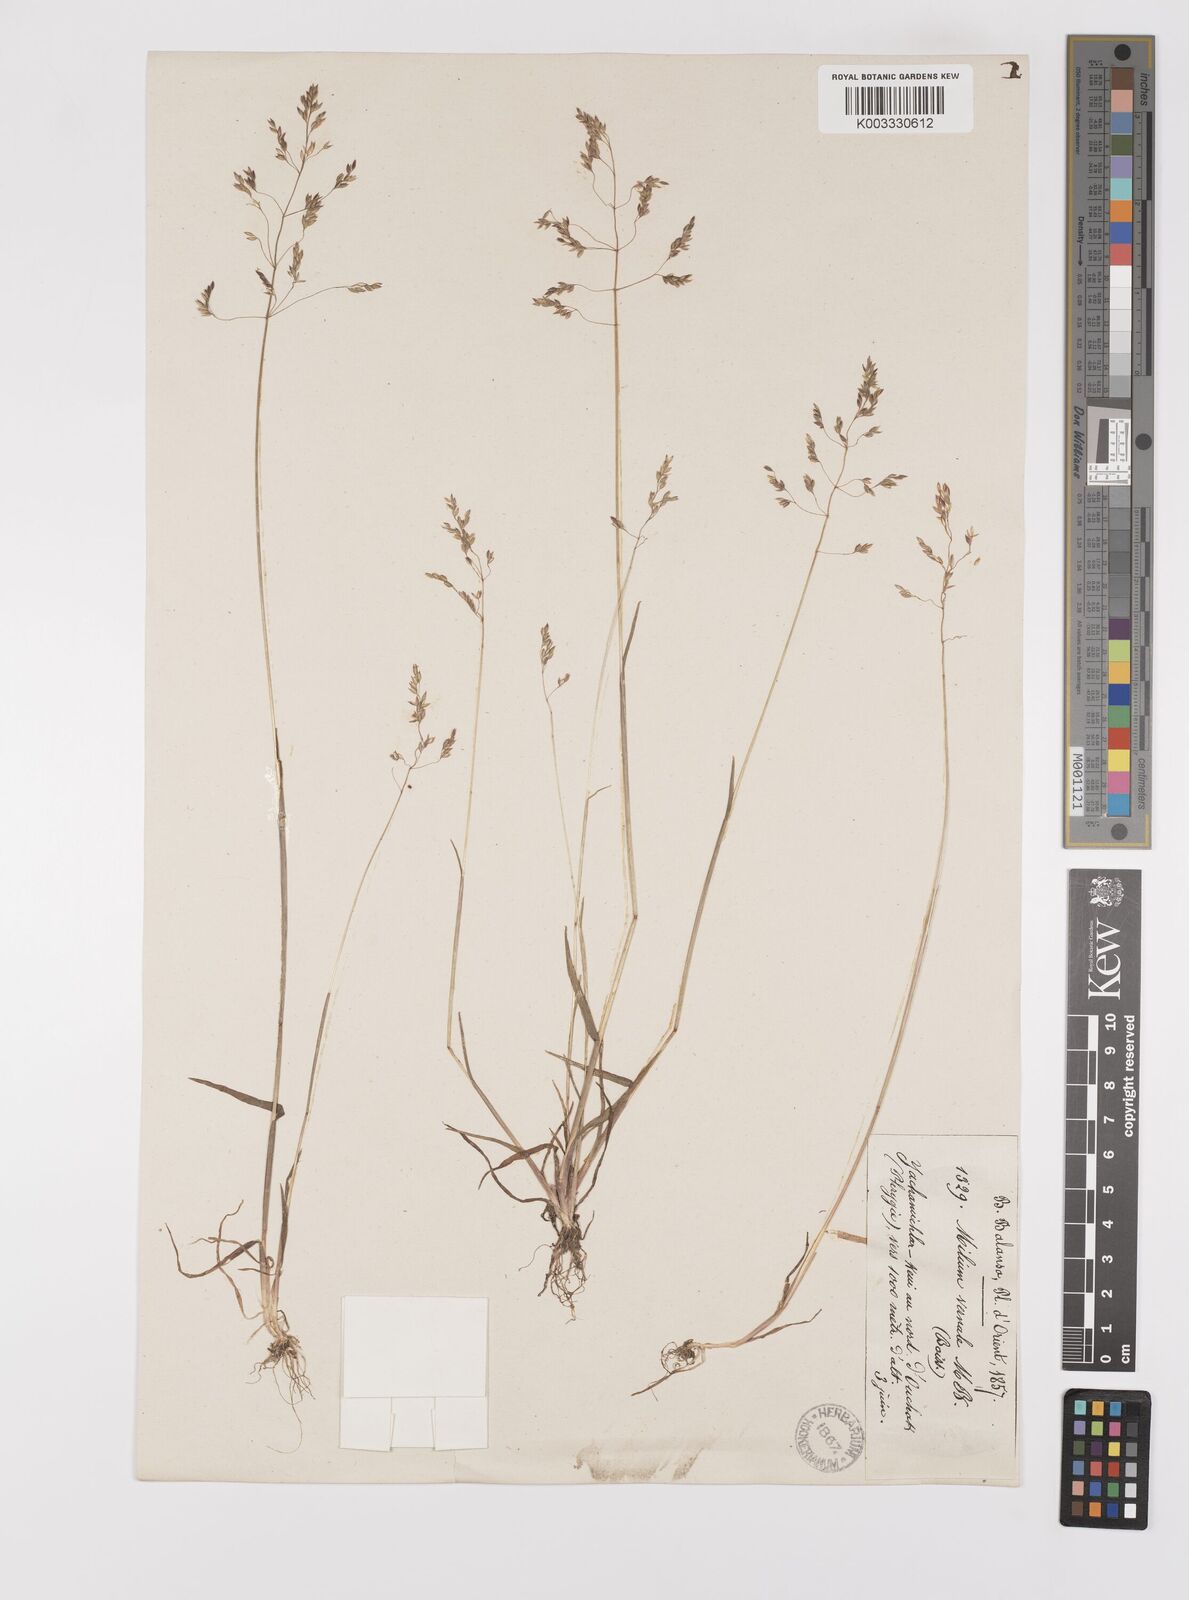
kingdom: Plantae
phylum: Tracheophyta
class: Liliopsida
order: Poales
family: Poaceae
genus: Milium
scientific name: Milium vernale
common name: Early millet
